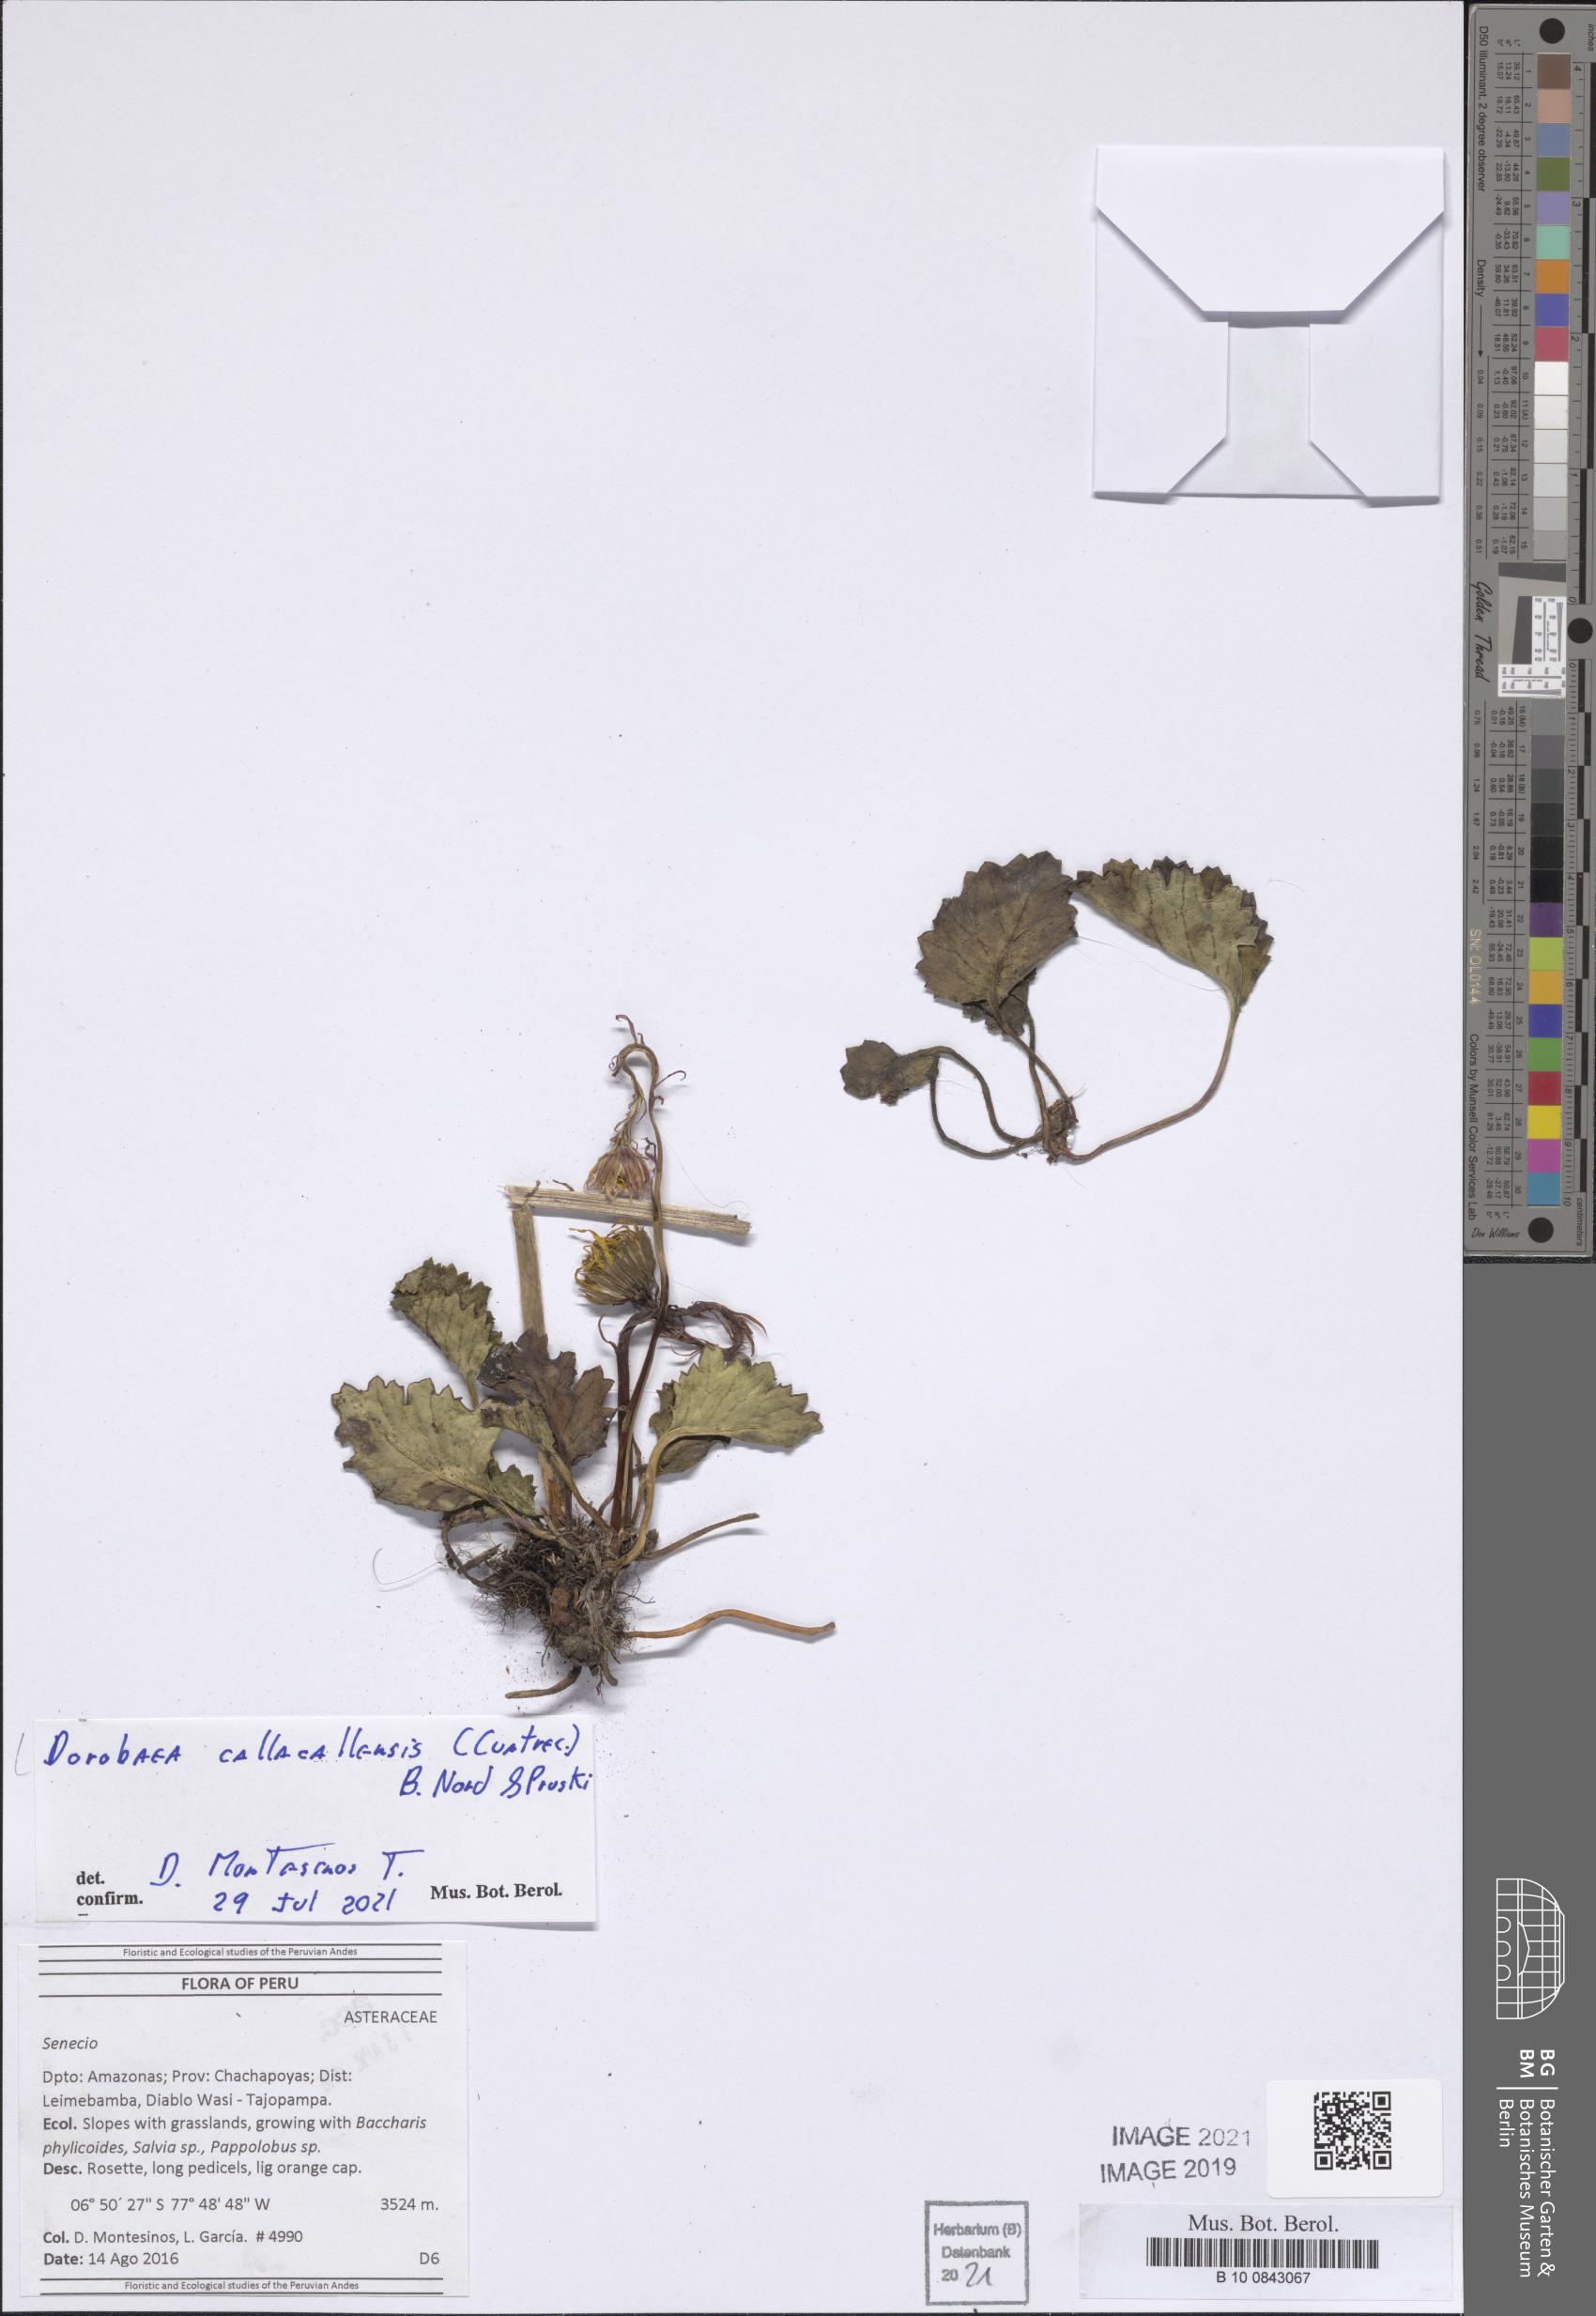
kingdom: Plantae
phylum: Tracheophyta
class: Magnoliopsida
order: Asterales
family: Asteraceae
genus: Dorobaea
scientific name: Dorobaea pimpinellifolia
